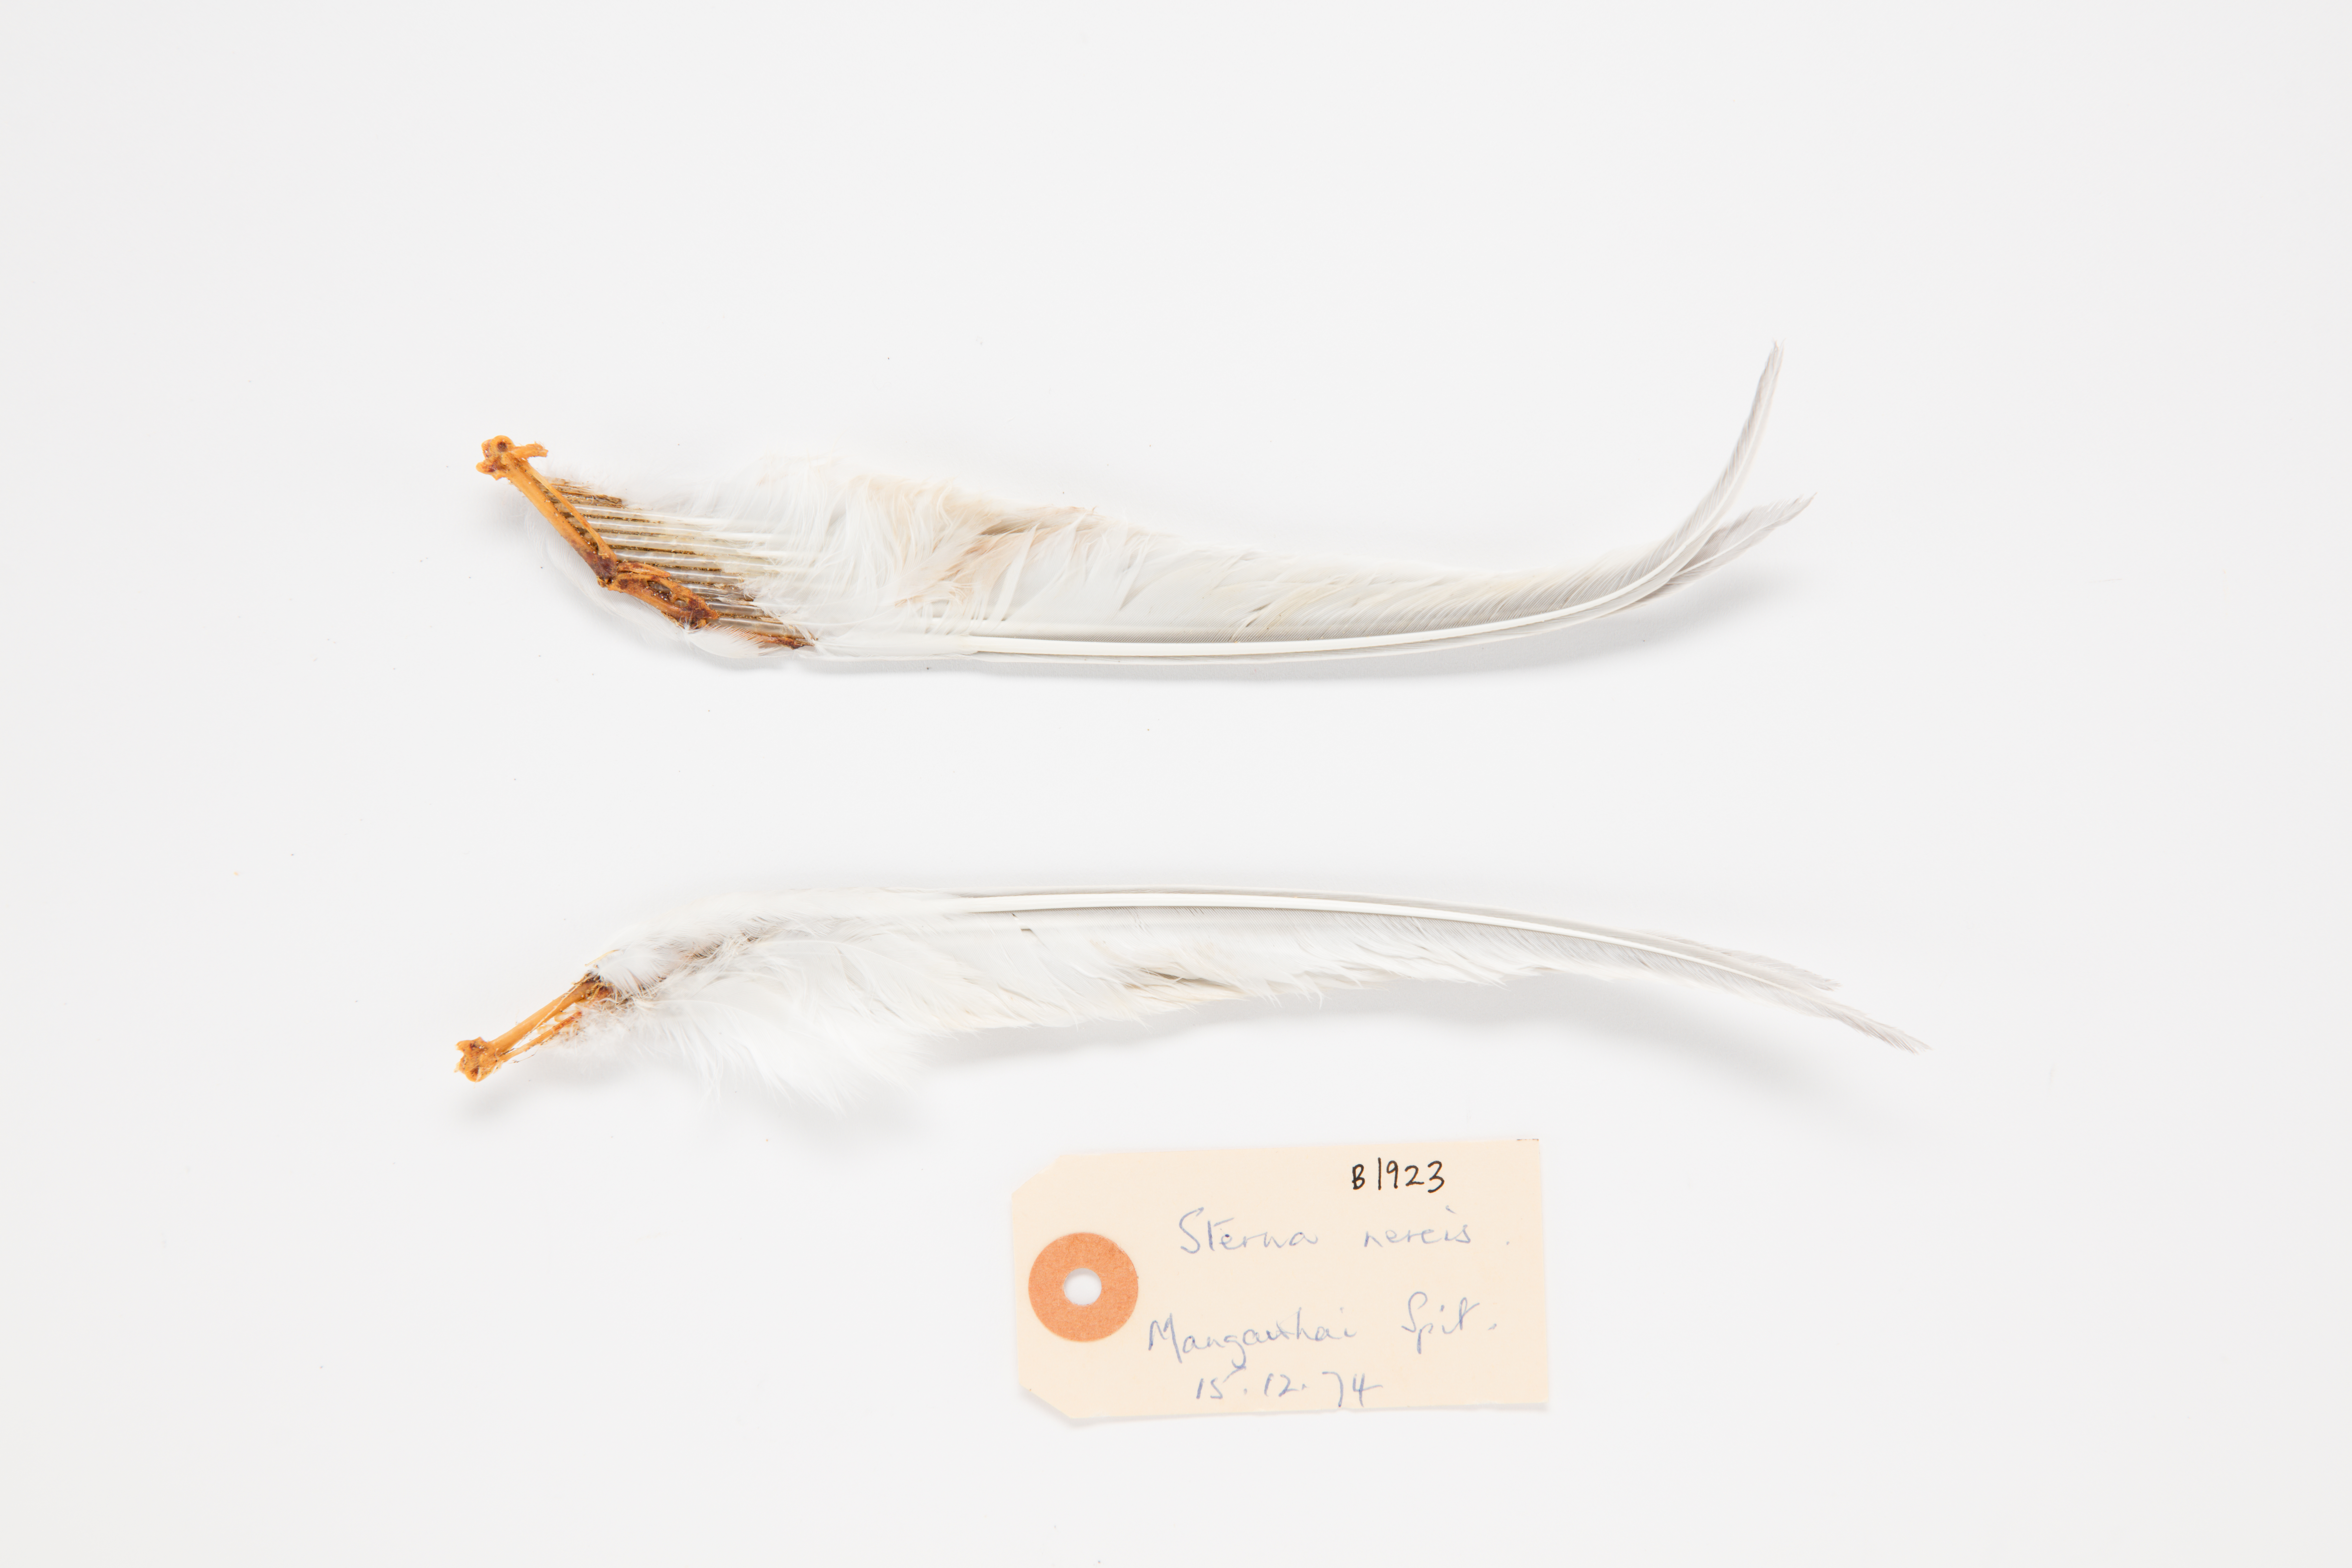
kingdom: Animalia
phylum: Chordata
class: Aves
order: Charadriiformes
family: Laridae
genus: Sternula
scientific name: Sternula nereis
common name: Fairy tern
